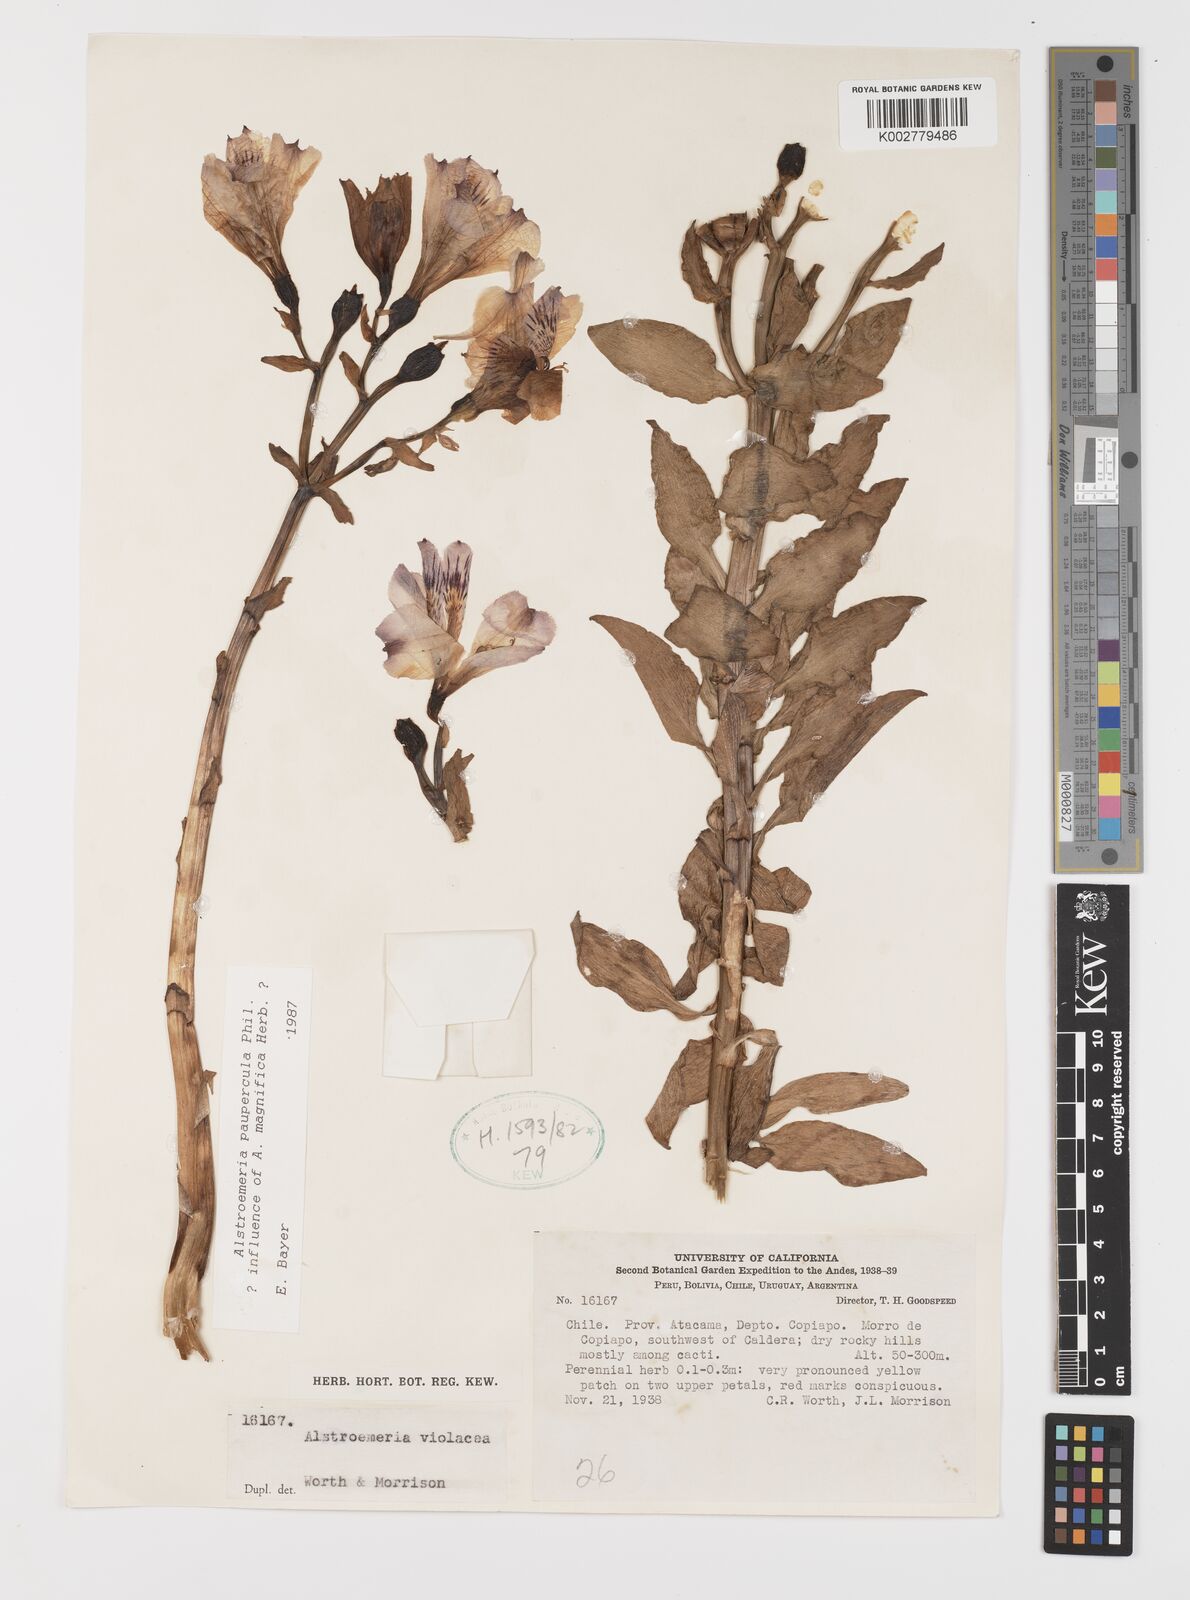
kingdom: Plantae
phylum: Tracheophyta
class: Liliopsida
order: Liliales
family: Alstroemeriaceae
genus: Alstroemeria
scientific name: Alstroemeria paupercula
